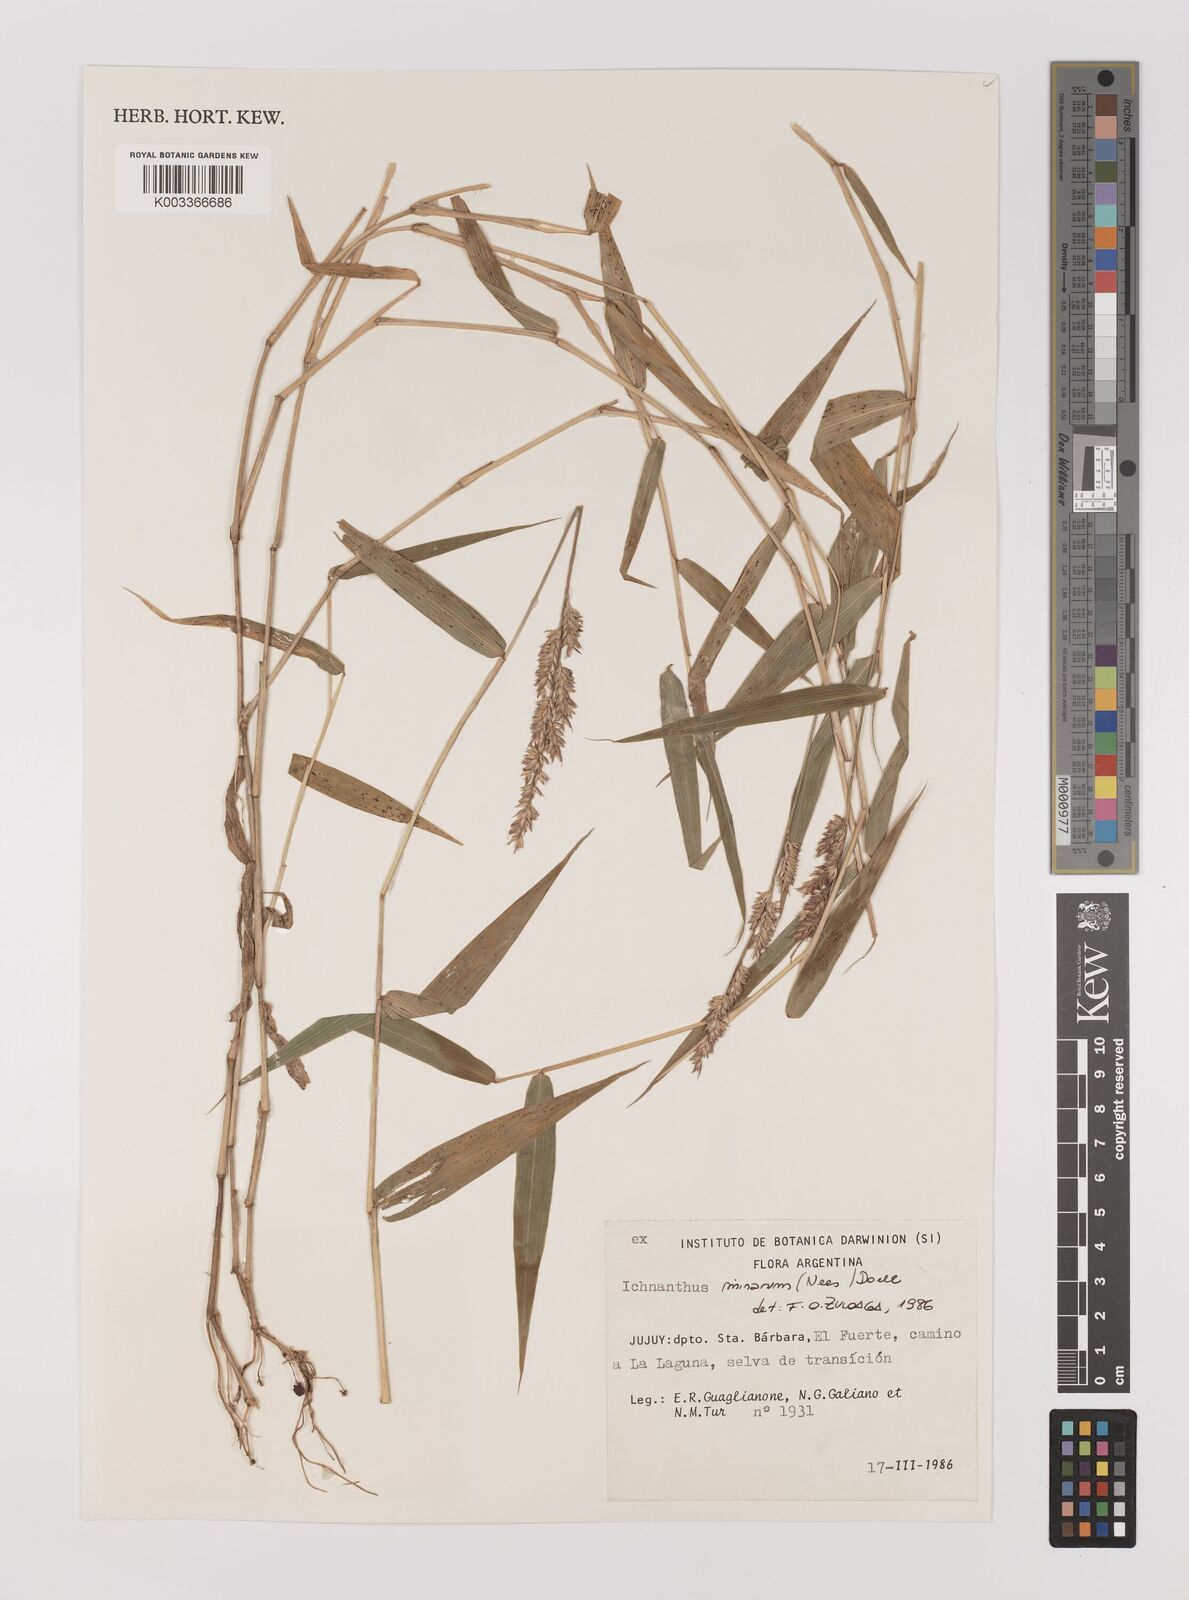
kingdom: Plantae
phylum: Tracheophyta
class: Liliopsida
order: Poales
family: Poaceae
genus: Oedochloa
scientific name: Oedochloa minarum
